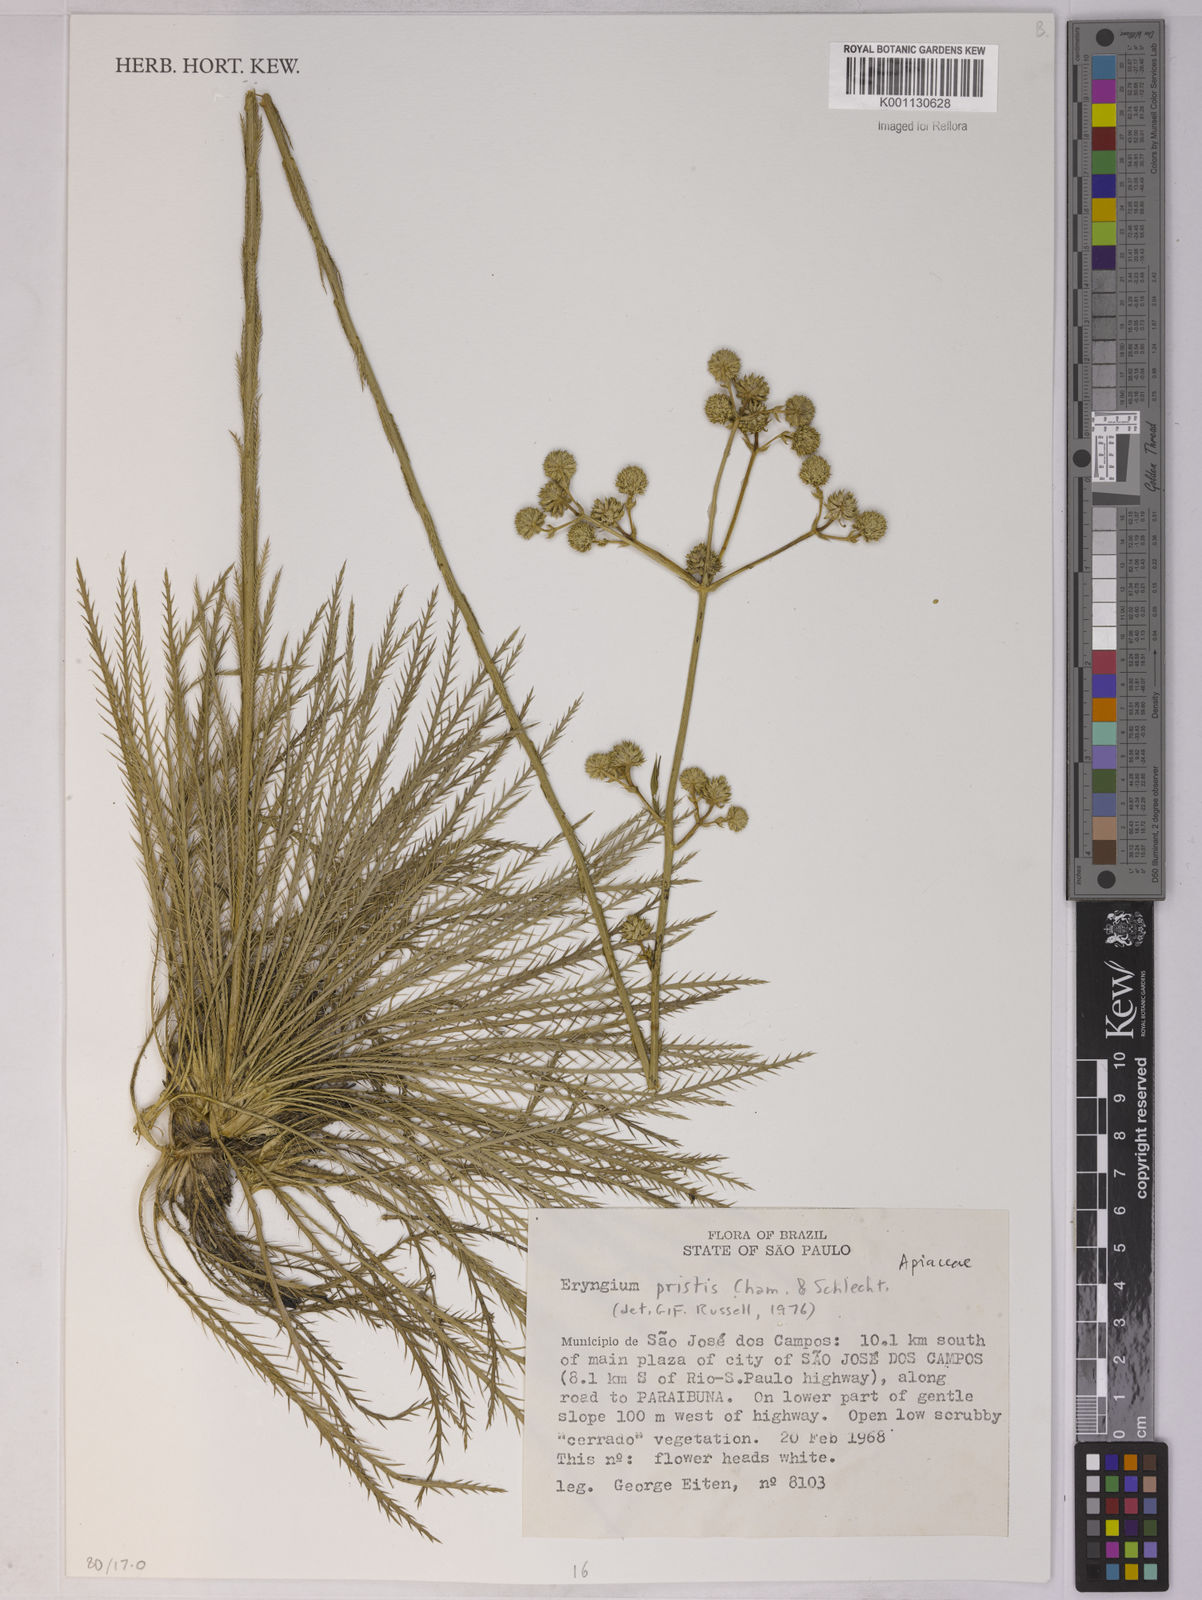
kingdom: Plantae
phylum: Tracheophyta
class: Magnoliopsida
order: Apiales
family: Apiaceae
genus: Eryngium
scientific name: Eryngium pristis
